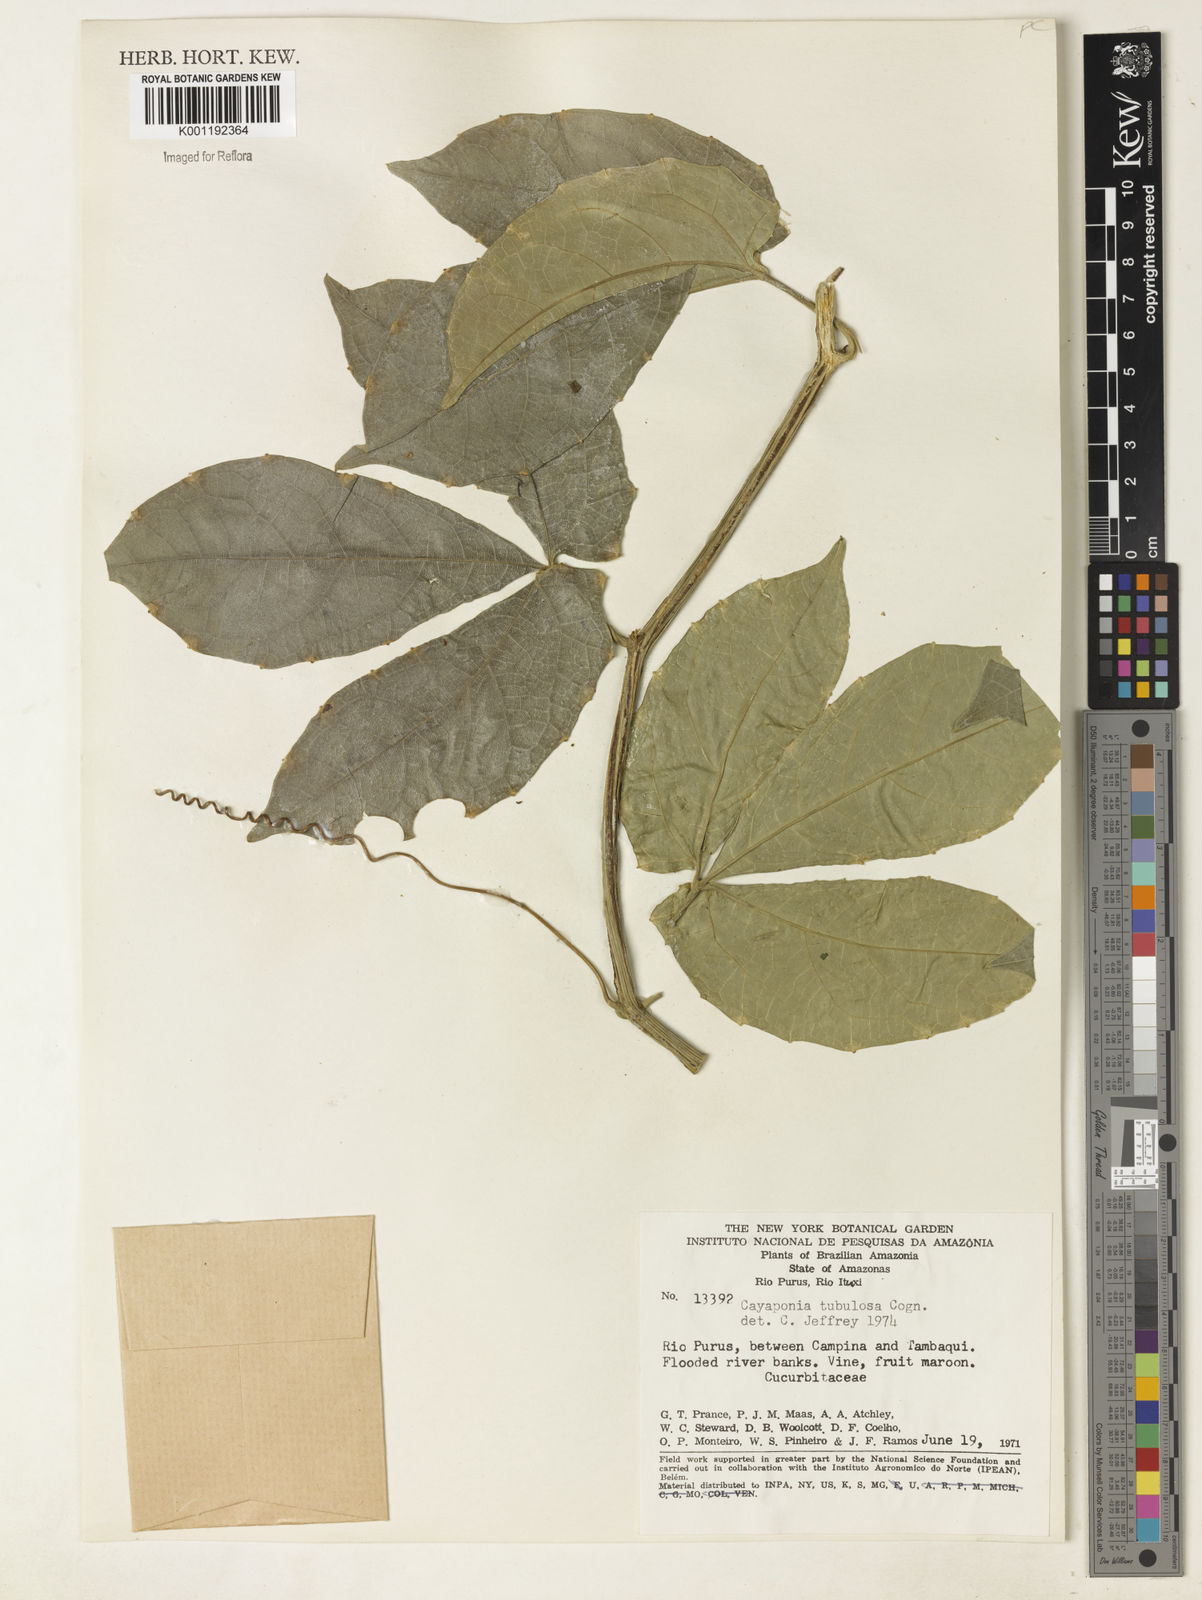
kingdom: Plantae
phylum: Tracheophyta
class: Magnoliopsida
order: Cucurbitales
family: Cucurbitaceae
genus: Cayaponia
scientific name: Cayaponia tubulosa
